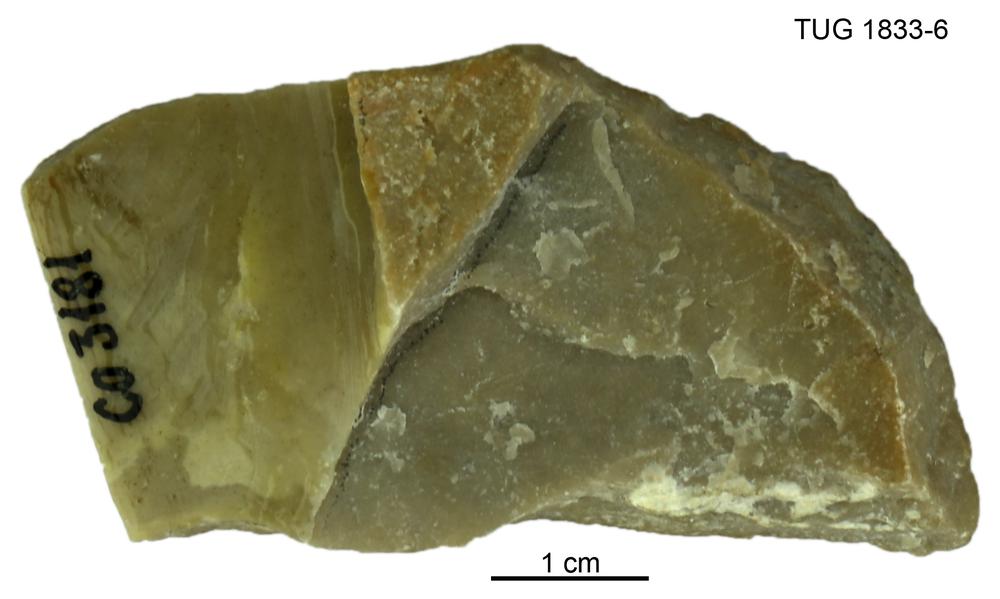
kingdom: Animalia
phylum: Porifera
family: Densastromatidae
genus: Densastroma
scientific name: Densastroma
